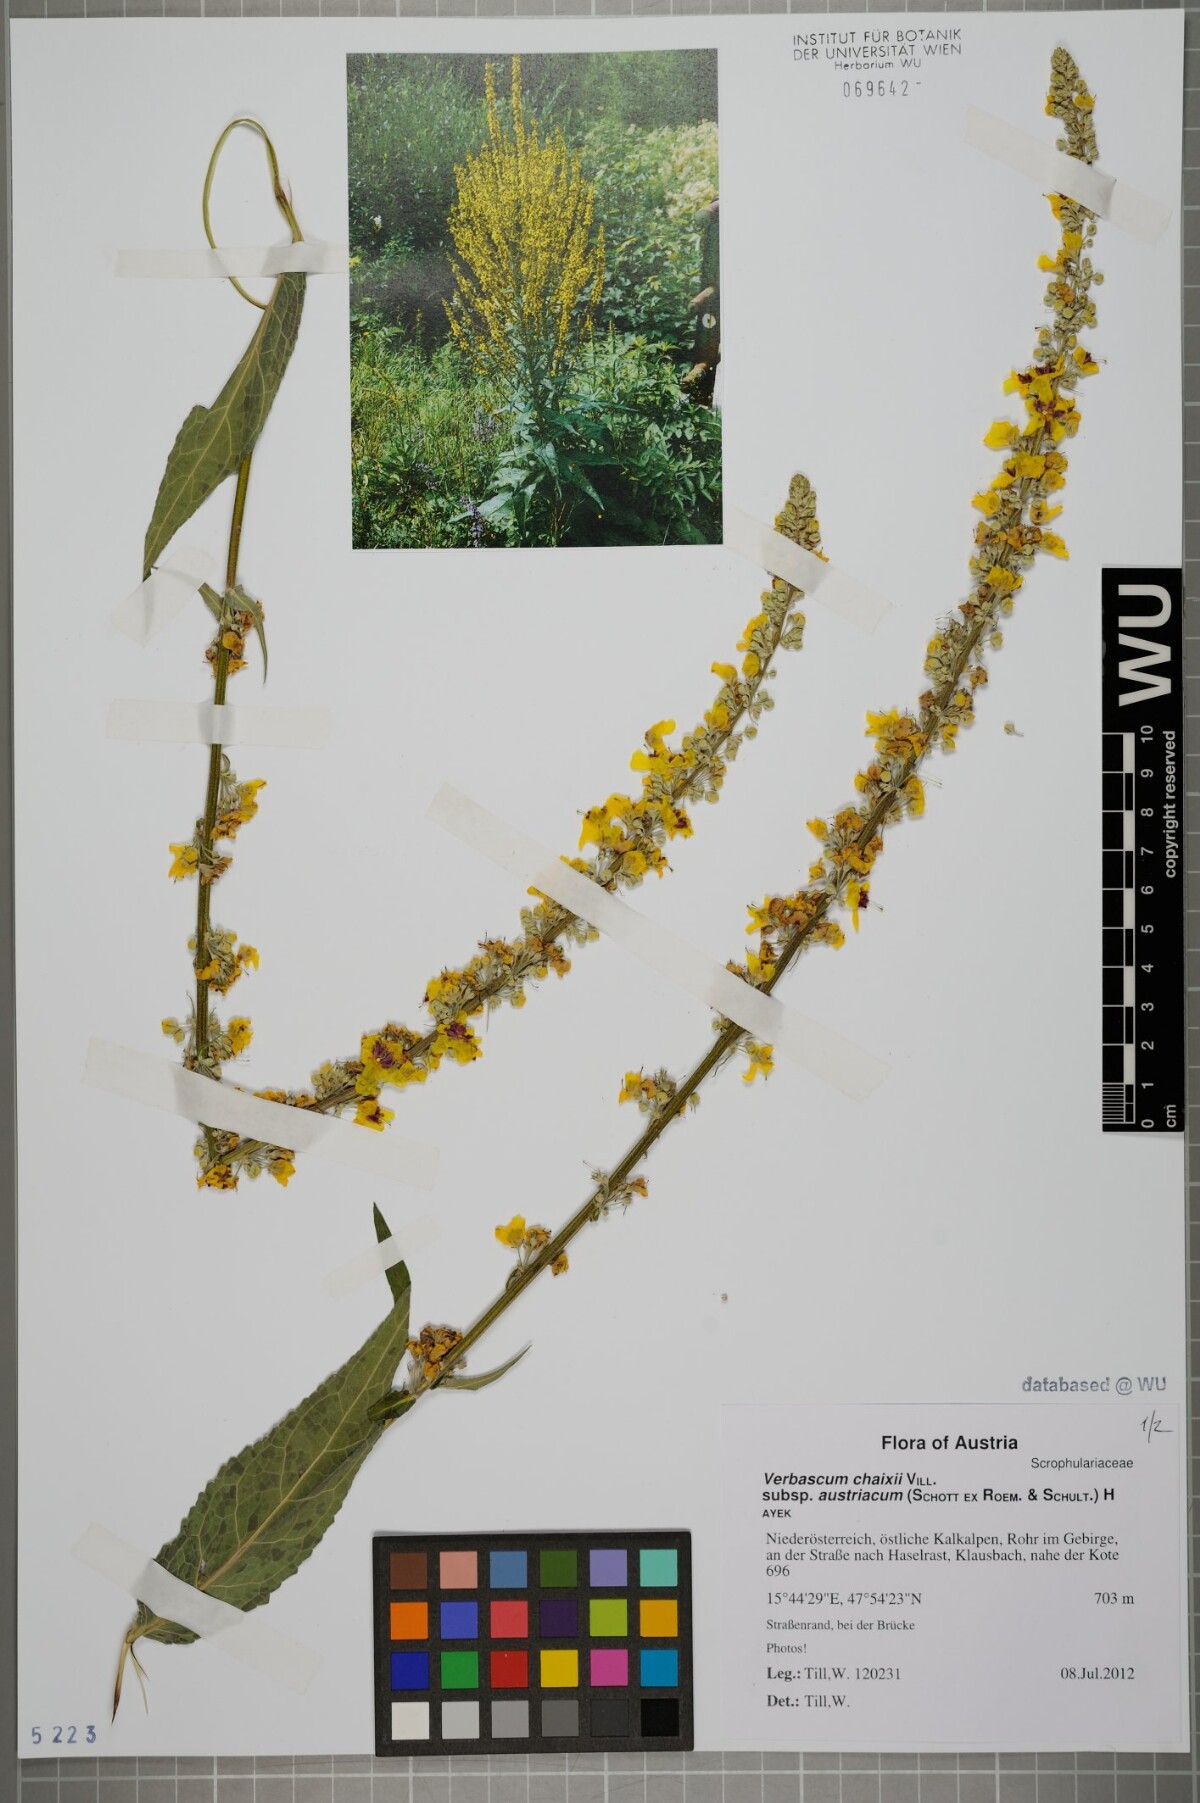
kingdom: Plantae
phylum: Tracheophyta
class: Magnoliopsida
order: Lamiales
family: Scrophulariaceae
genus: Verbascum
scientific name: Verbascum chaixii
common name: Nettle-leaved mullein
